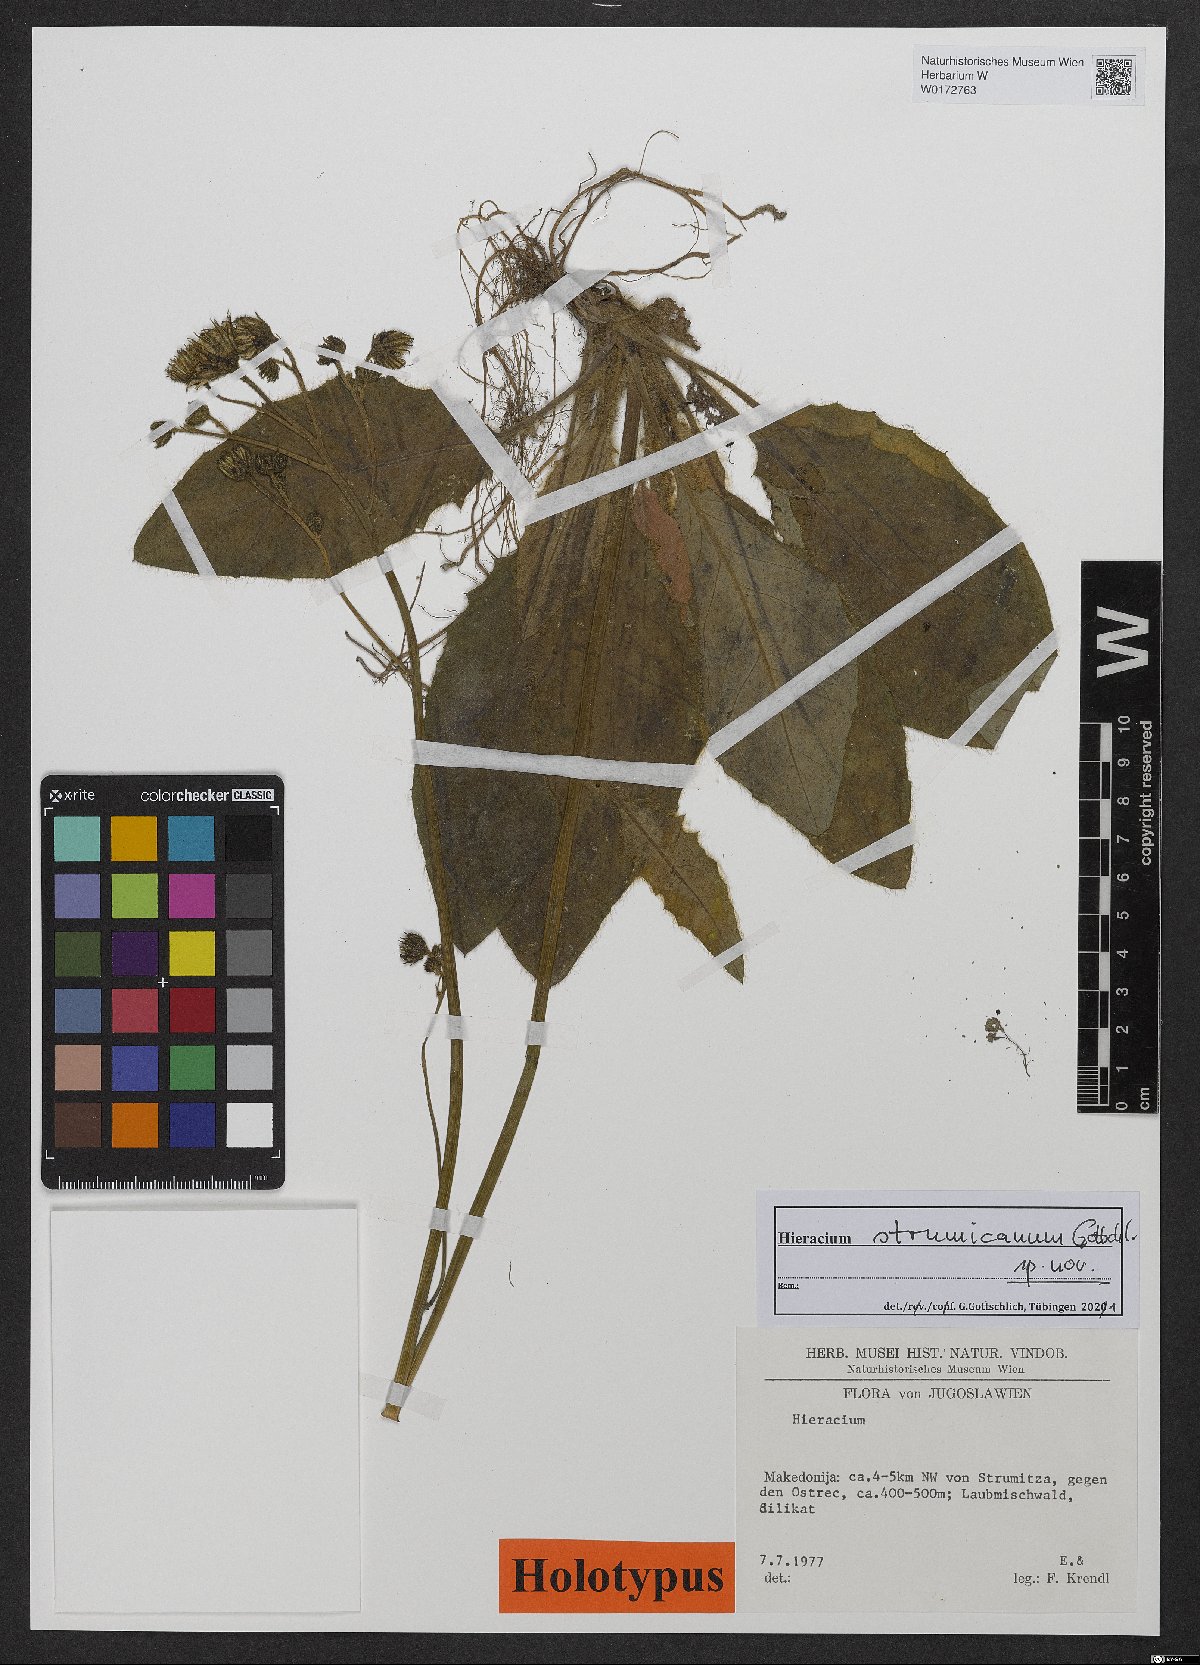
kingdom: Plantae
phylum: Tracheophyta
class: Magnoliopsida
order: Asterales
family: Asteraceae
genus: Hieracium
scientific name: Hieracium
